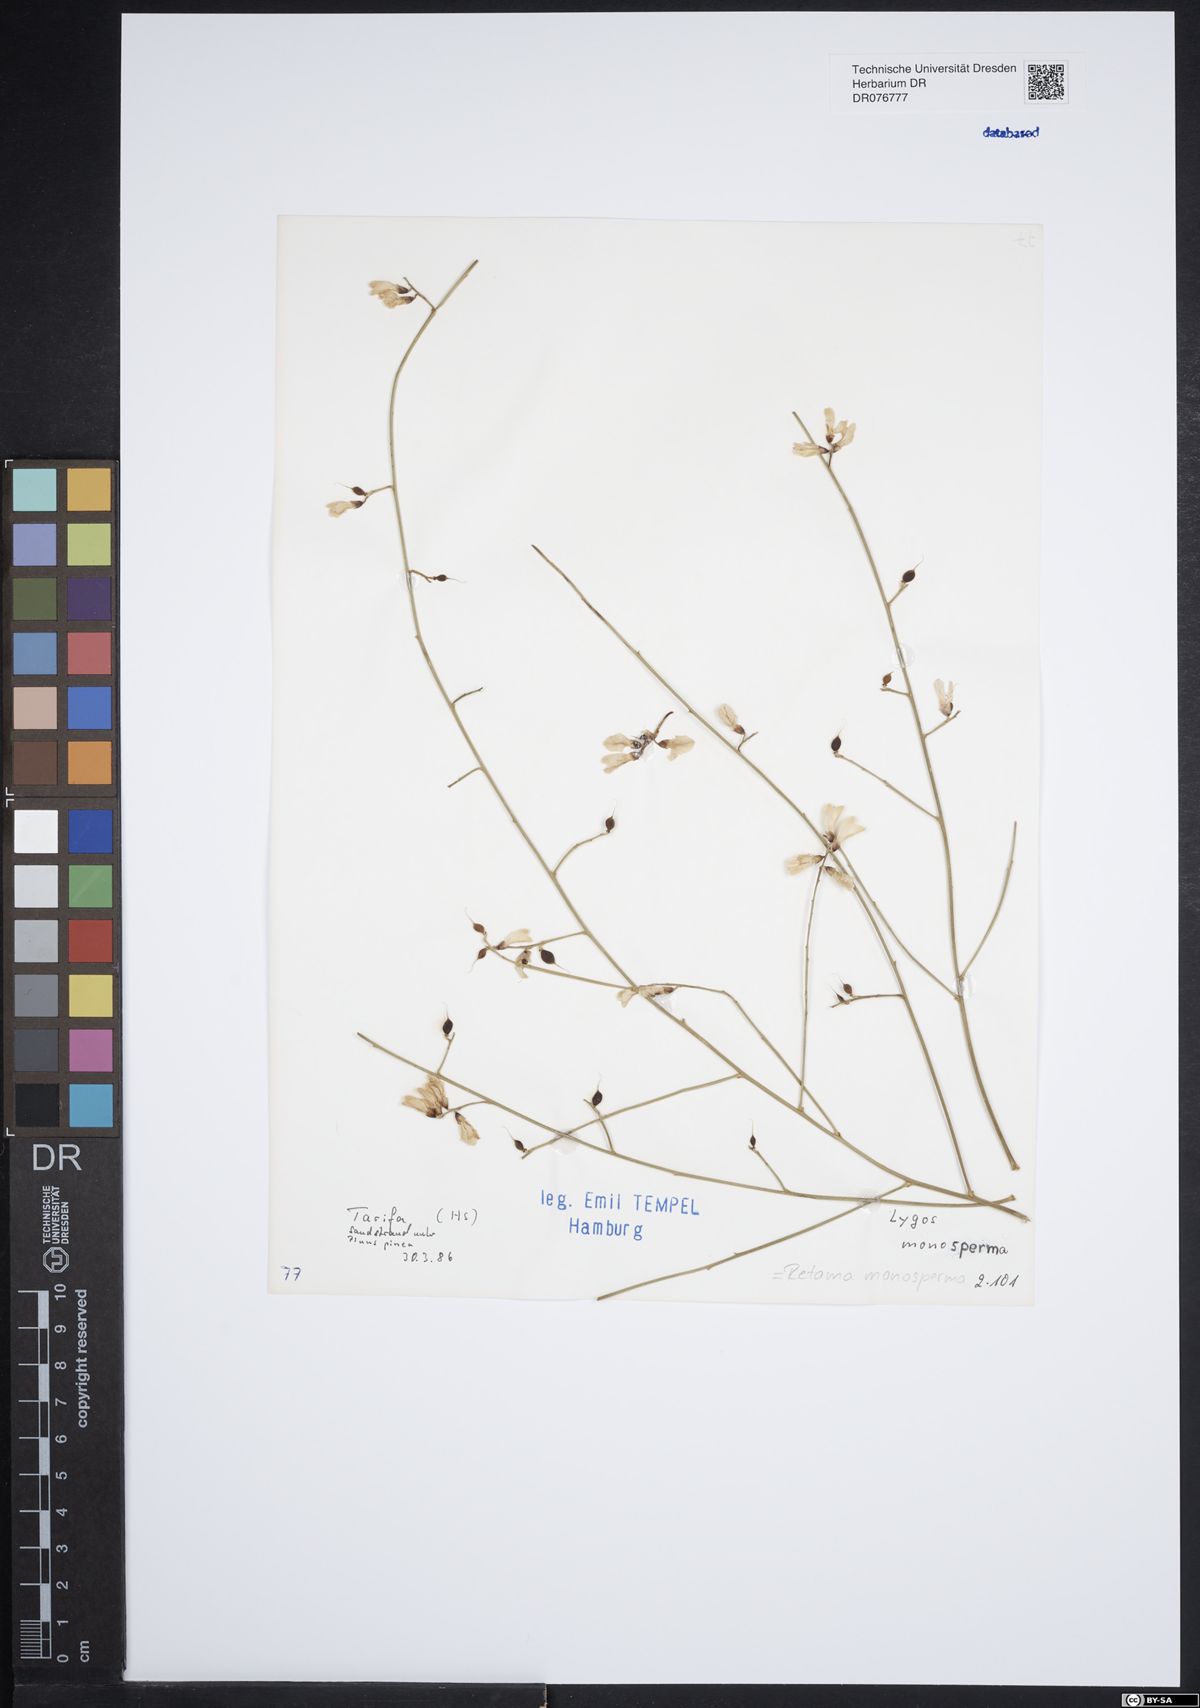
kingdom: Plantae
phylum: Tracheophyta
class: Magnoliopsida
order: Fabales
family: Fabaceae
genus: Retama
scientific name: Retama monosperma
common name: Bridal broom
